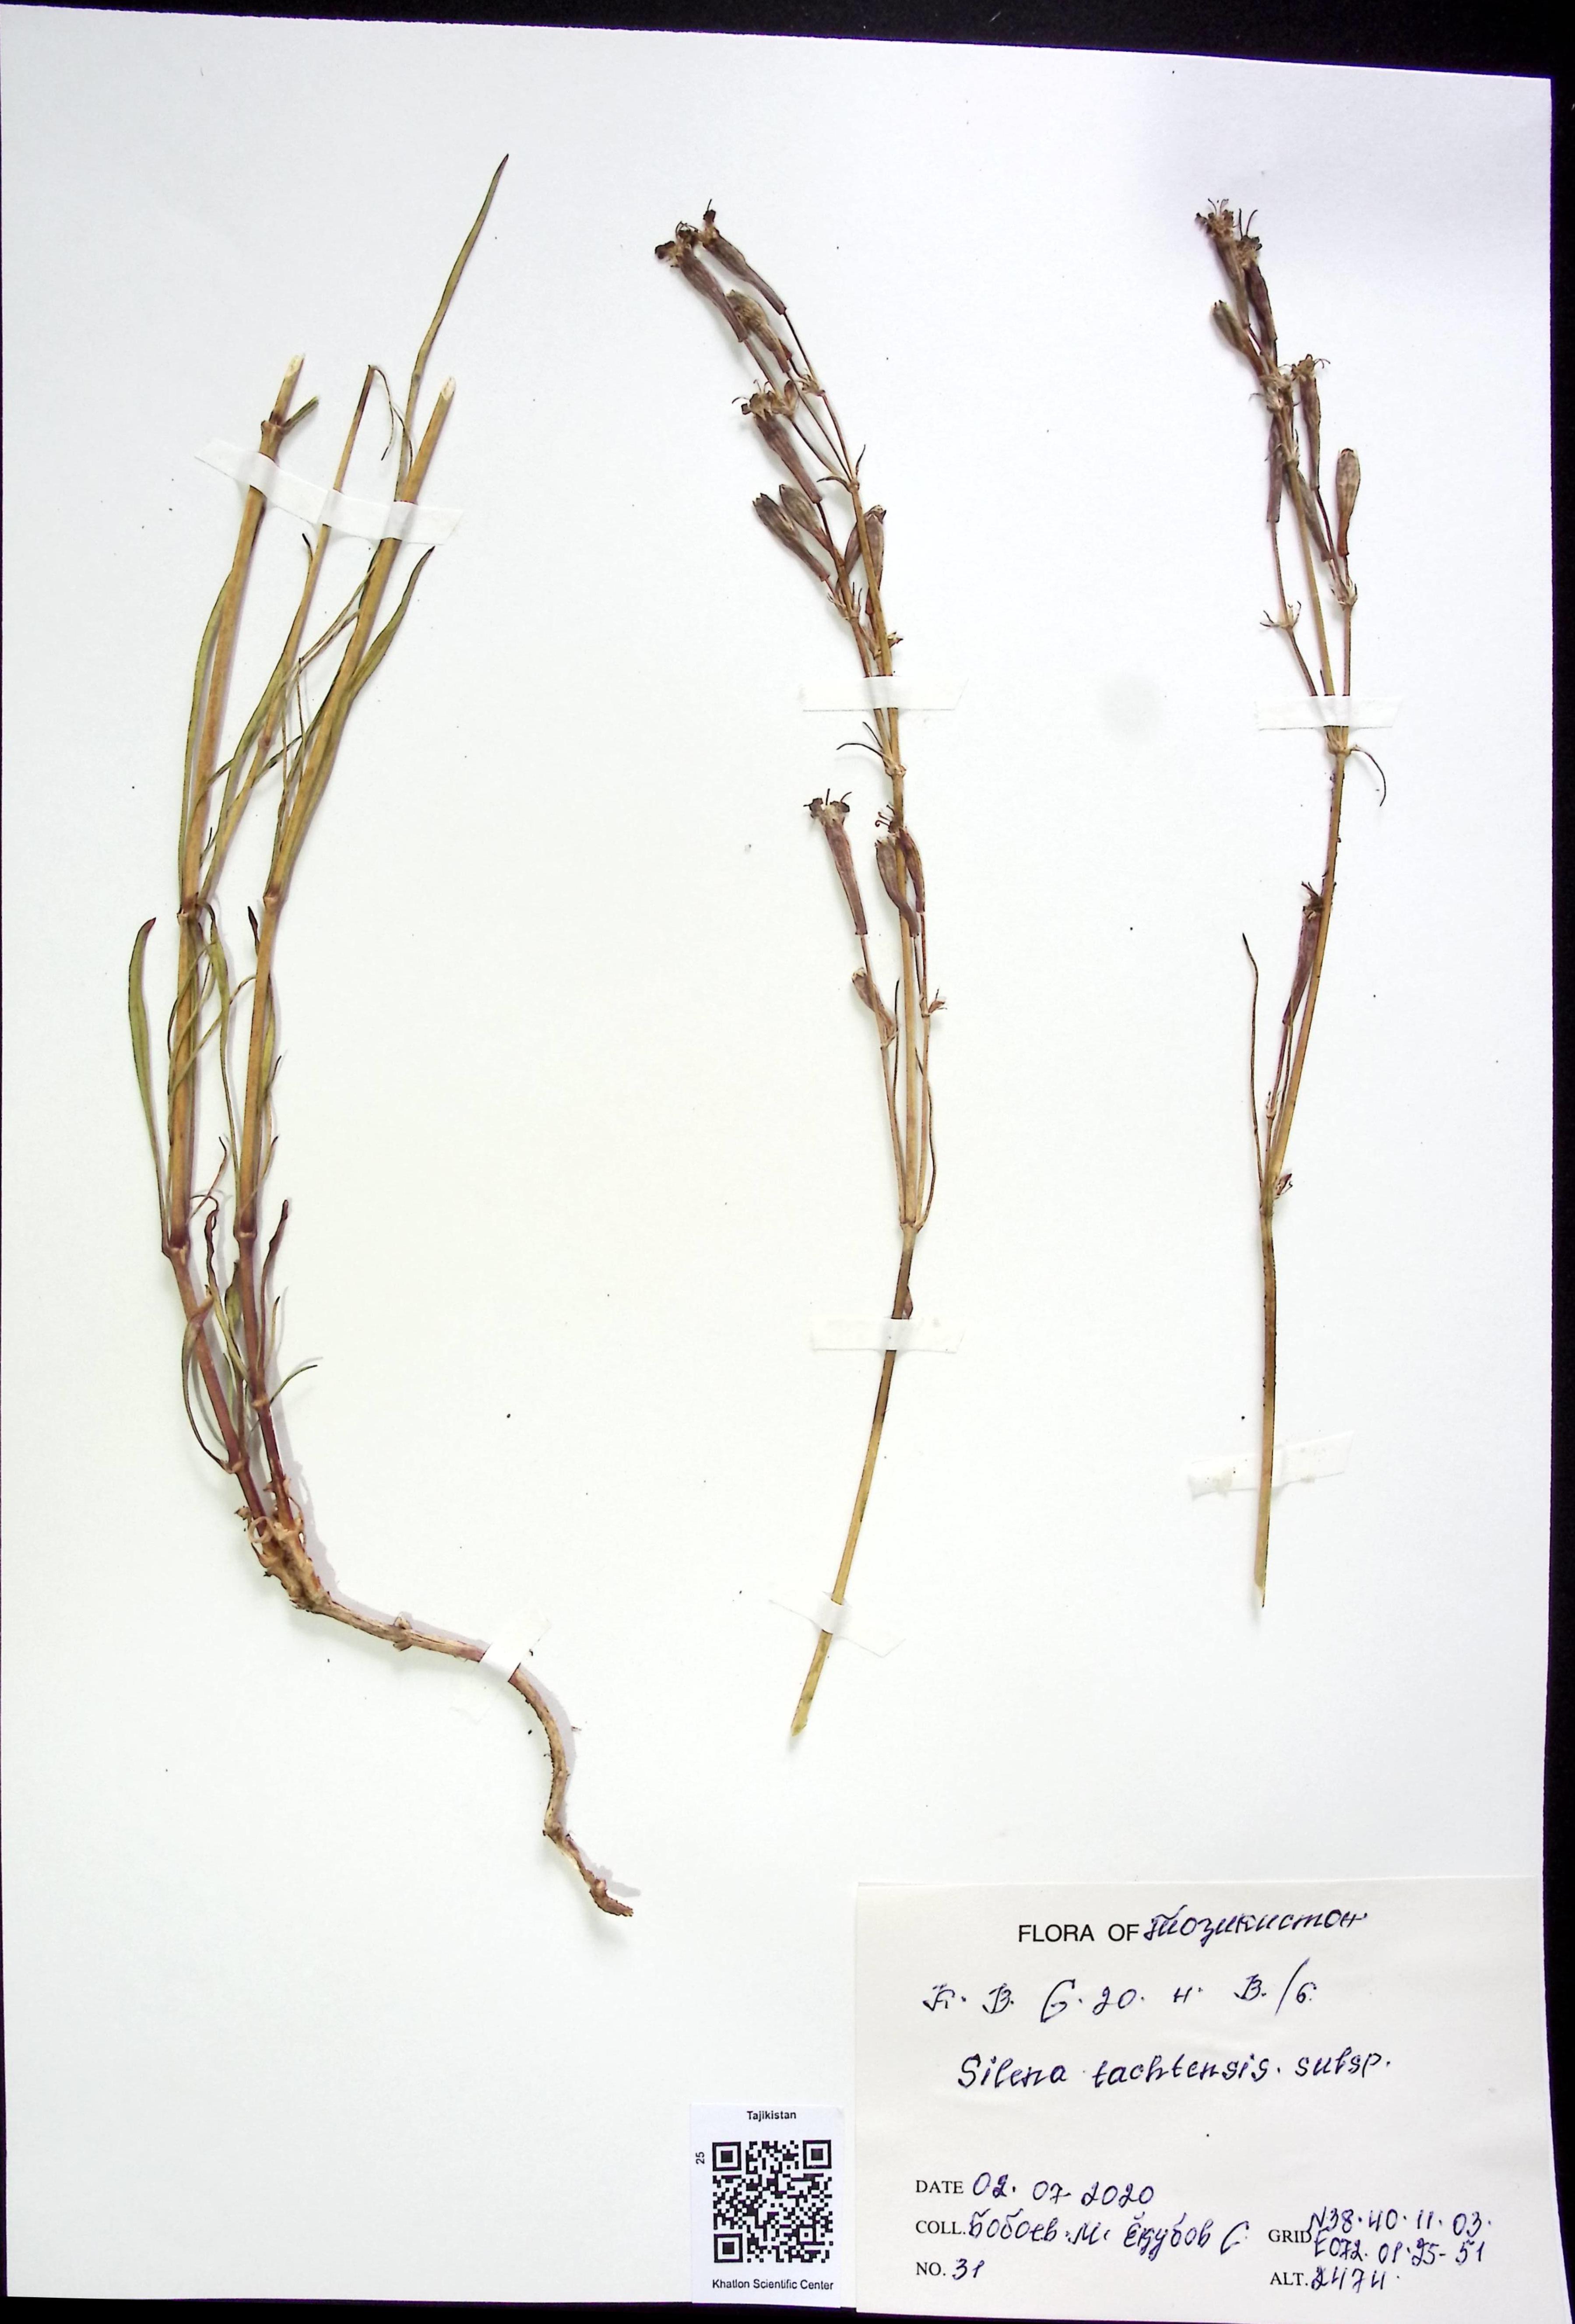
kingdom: Plantae
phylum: Tracheophyta
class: Magnoliopsida
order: Caryophyllales
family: Caryophyllaceae
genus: Silene
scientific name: Silene tachtensis
